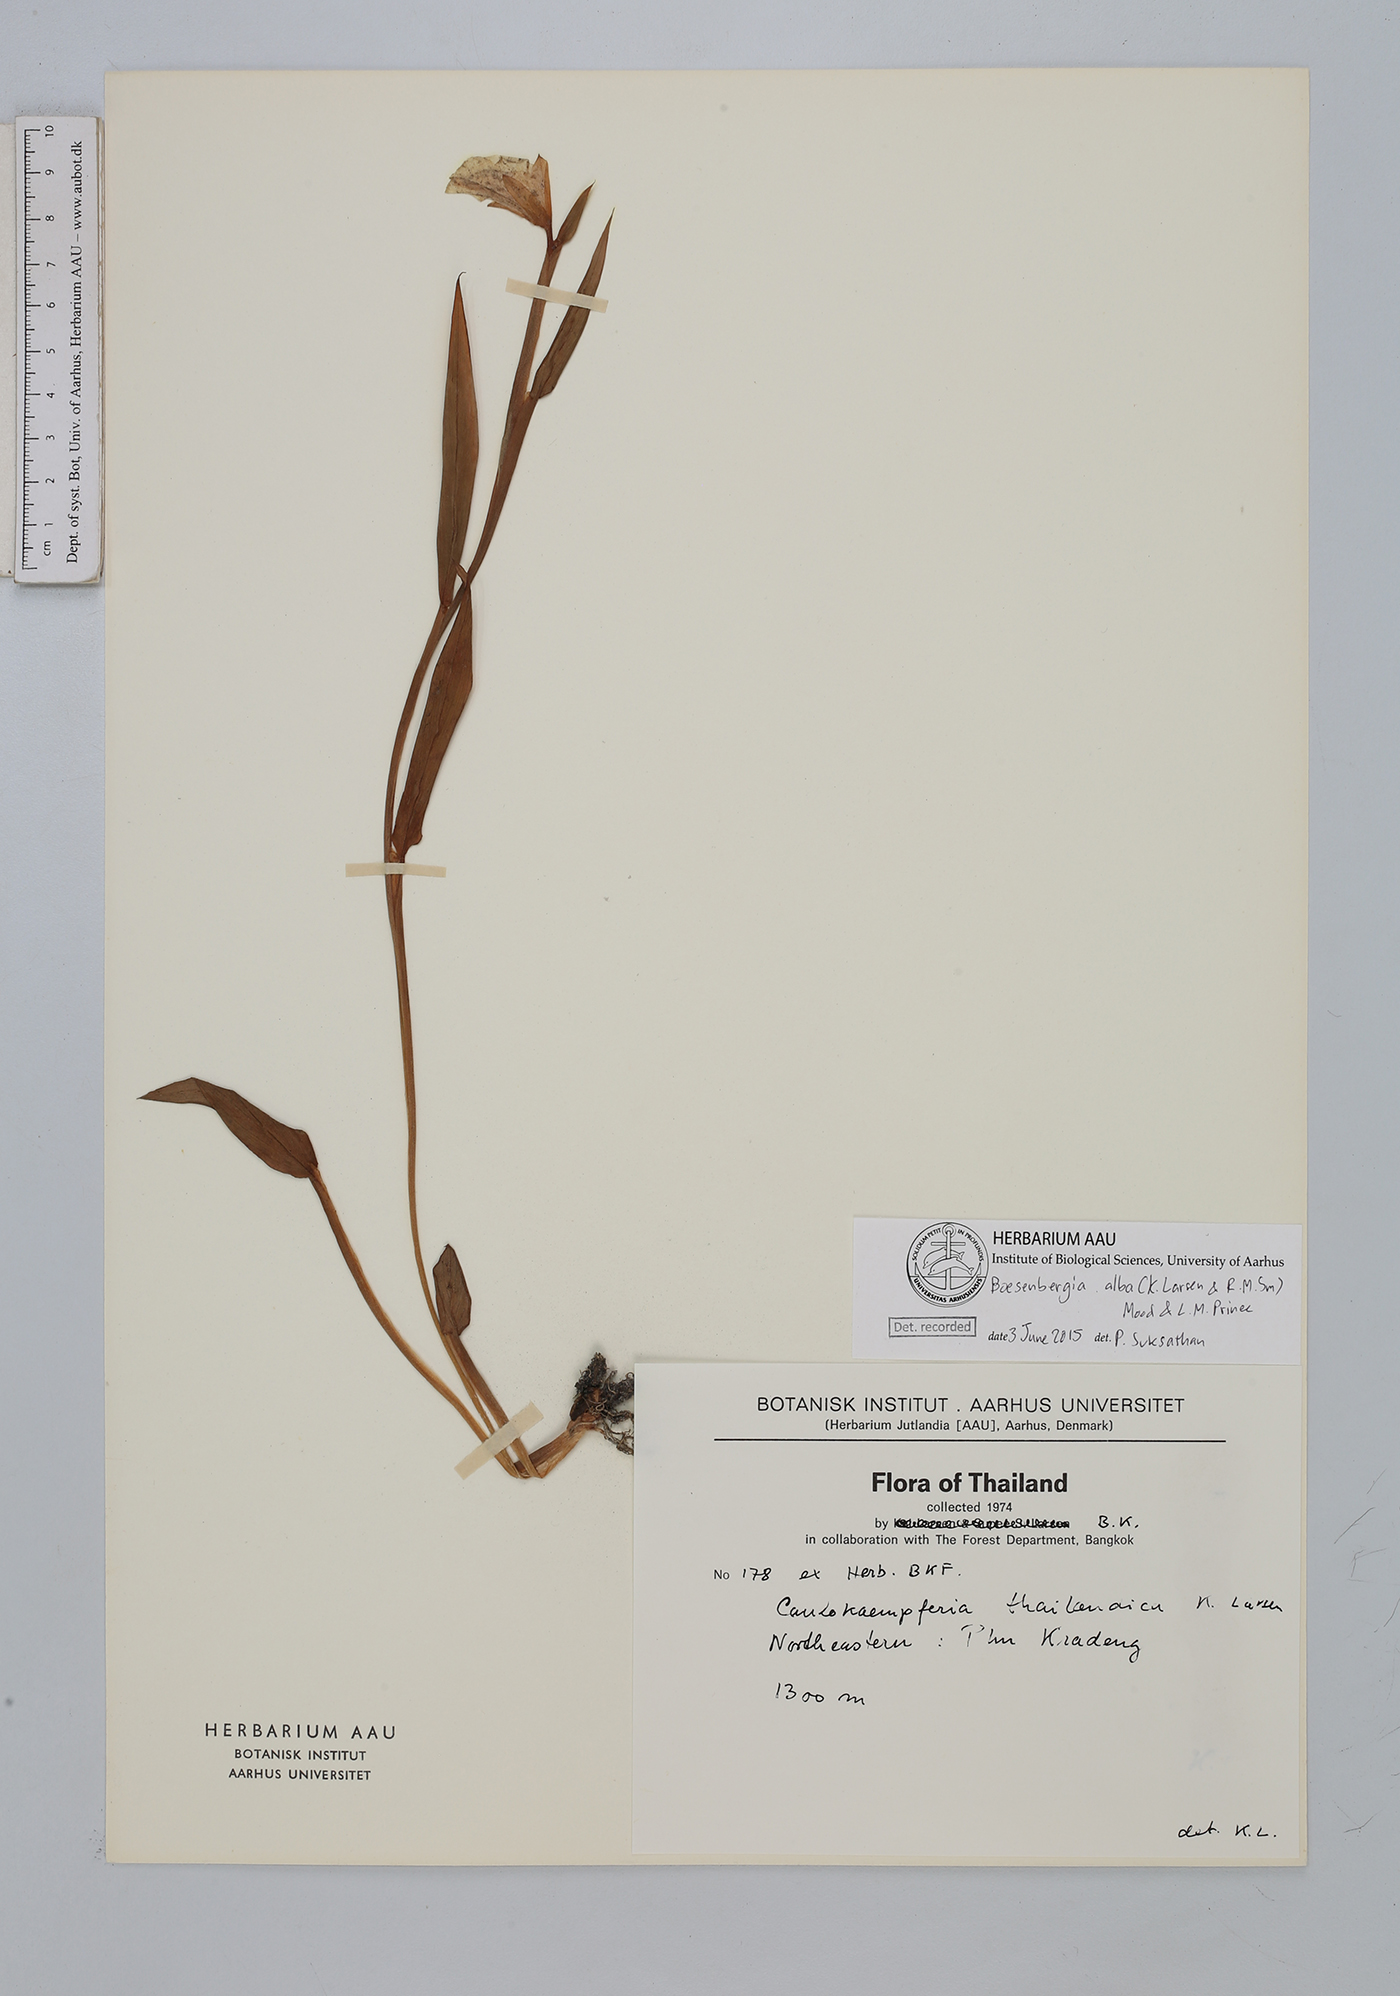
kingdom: Plantae
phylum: Tracheophyta
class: Liliopsida
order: Zingiberales
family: Zingiberaceae
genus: Boesenbergia
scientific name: Boesenbergia alba
